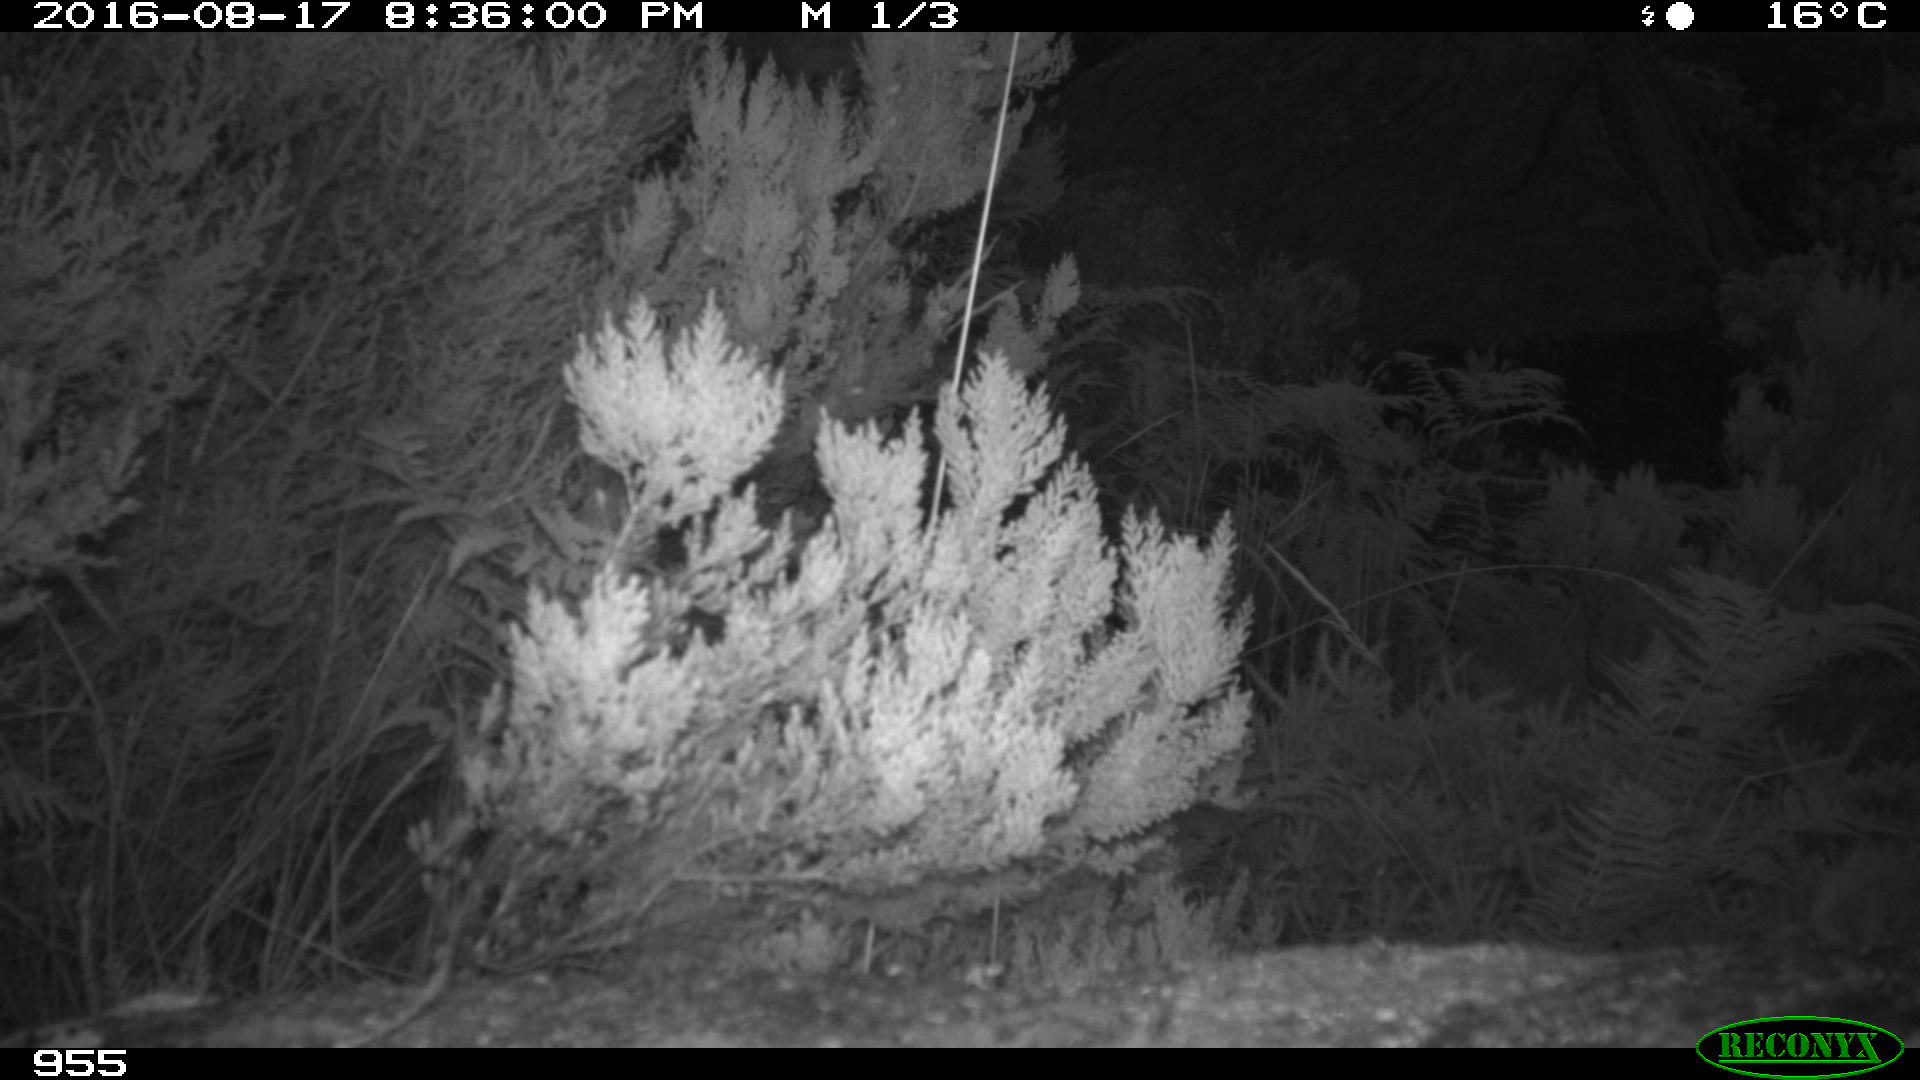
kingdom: Animalia
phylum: Chordata
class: Aves
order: Passeriformes
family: Prunellidae
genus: Prunella
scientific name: Prunella modularis
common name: Dunnock
